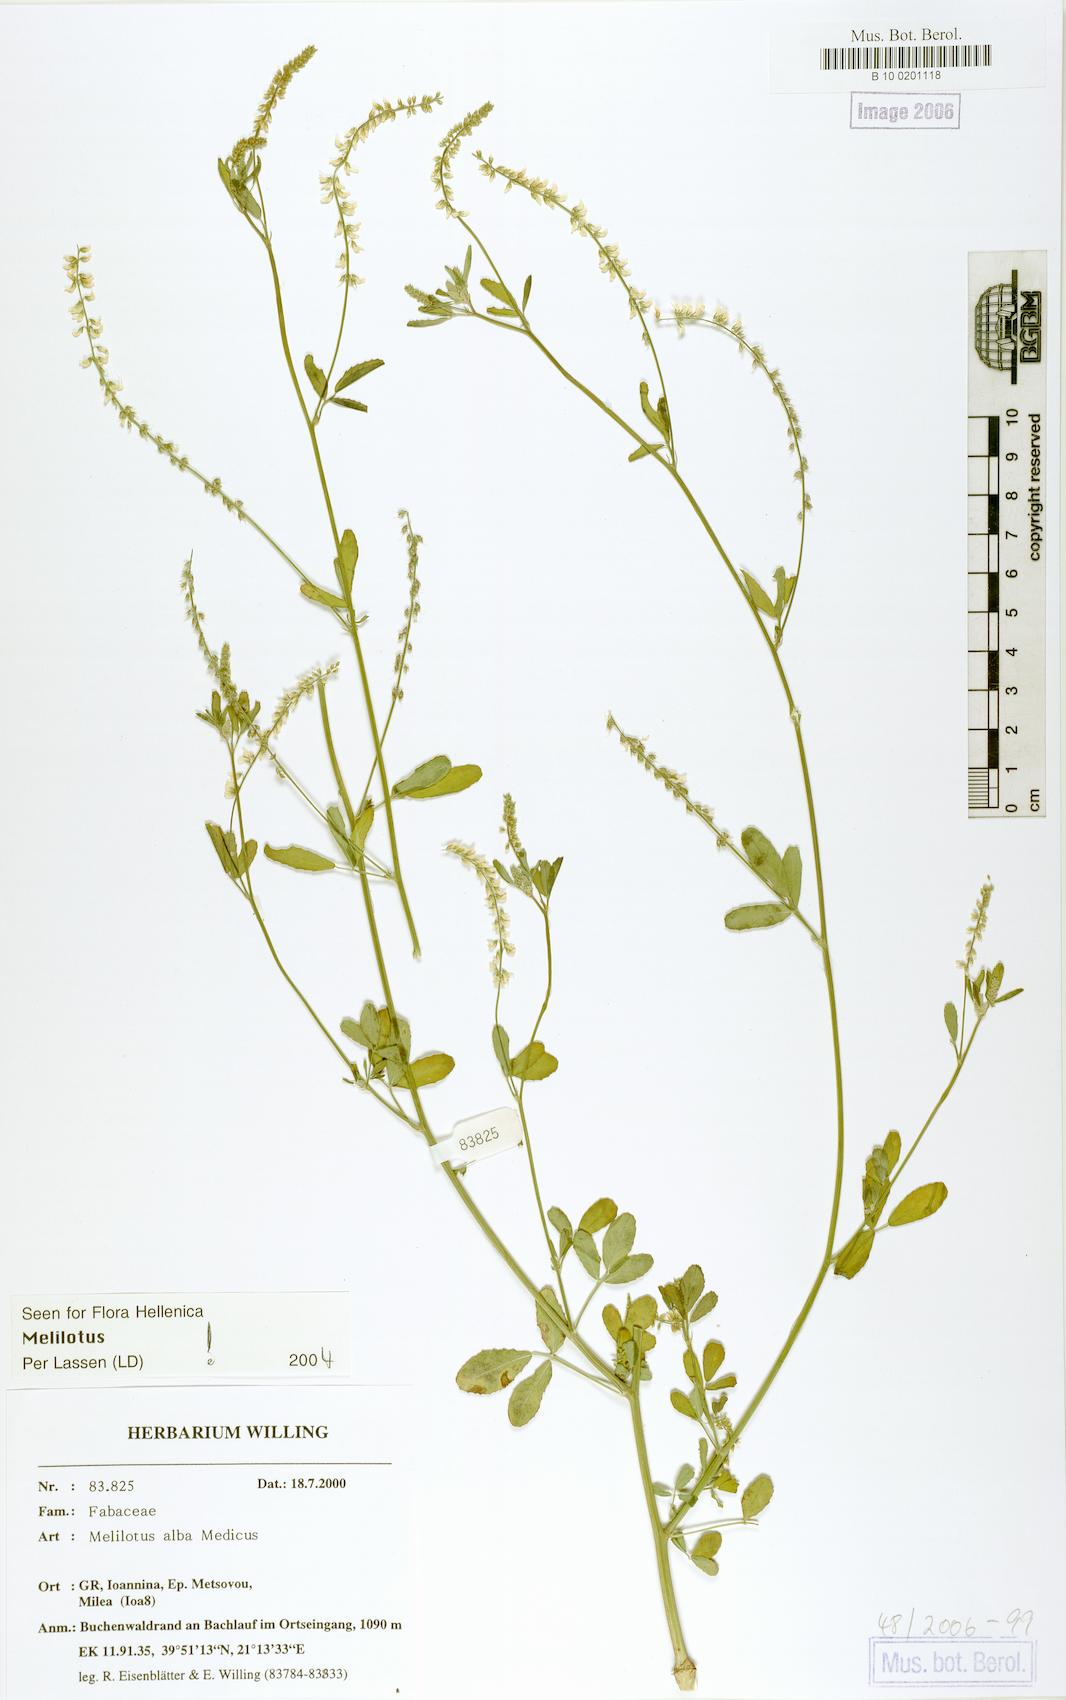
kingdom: Plantae
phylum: Tracheophyta
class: Magnoliopsida
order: Fabales
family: Fabaceae
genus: Melilotus
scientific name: Melilotus albus
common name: White melilot
